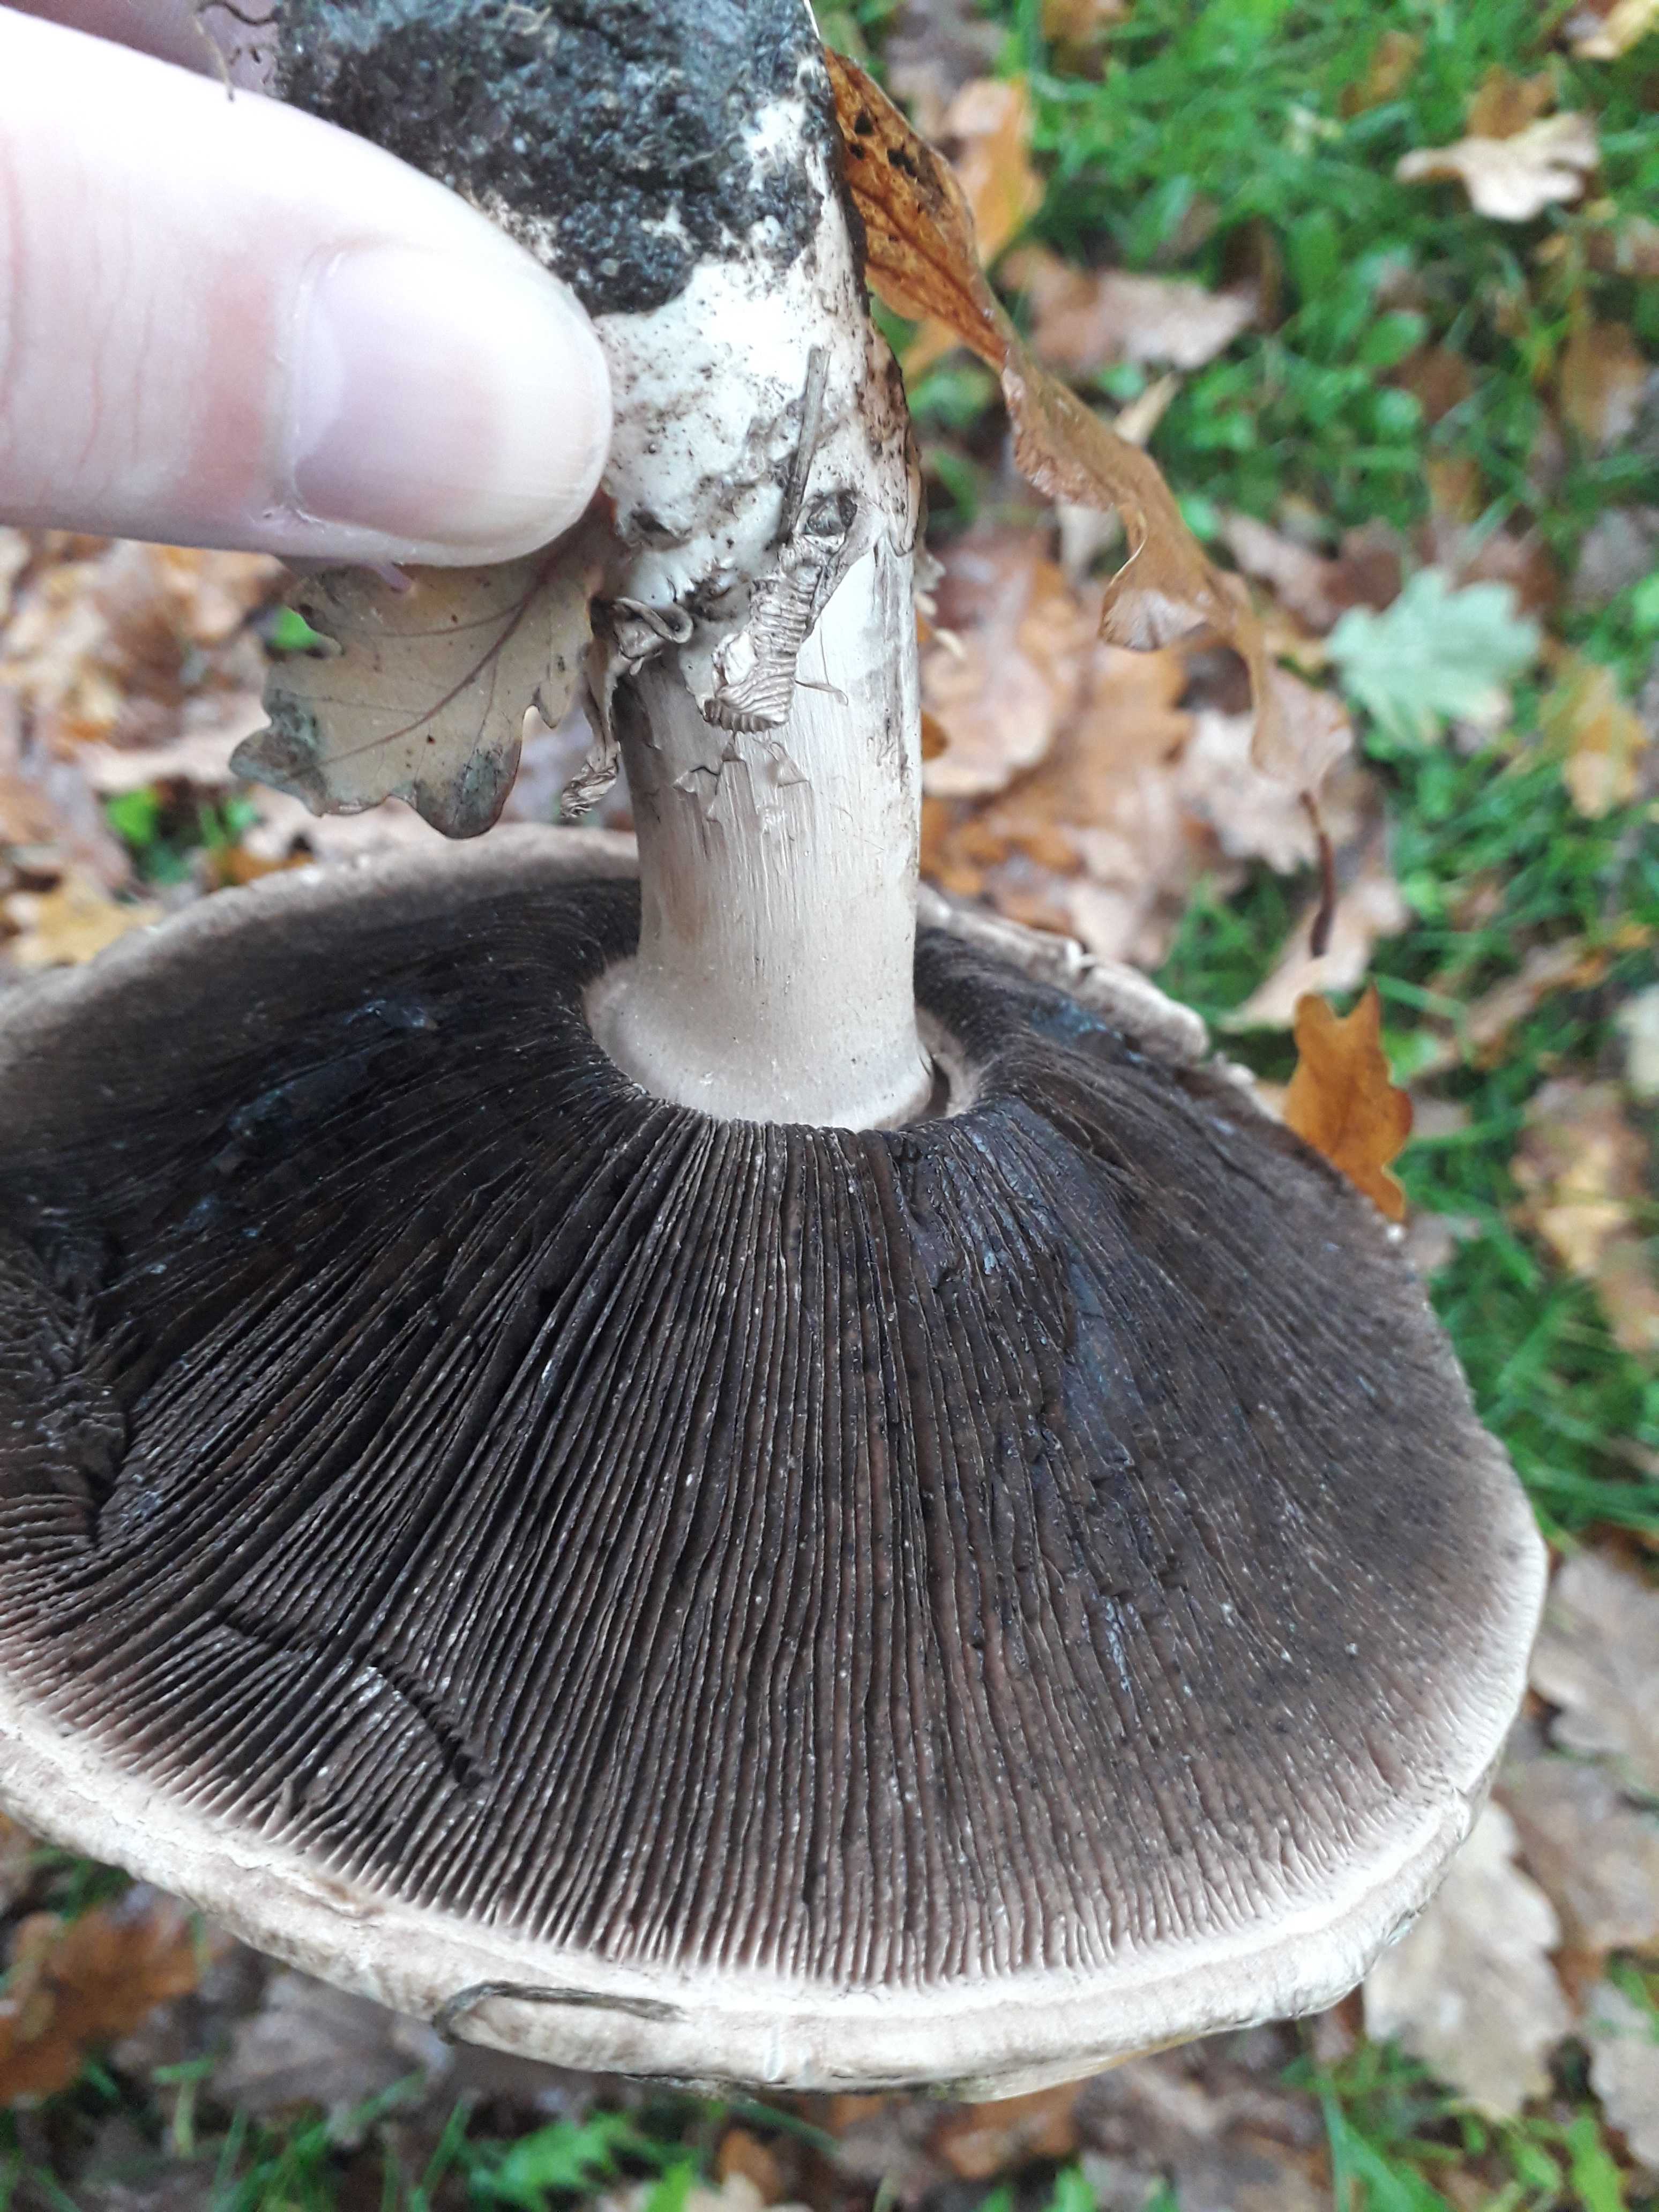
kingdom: Fungi
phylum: Basidiomycota
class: Agaricomycetes
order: Agaricales
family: Agaricaceae
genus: Agaricus
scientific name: Agaricus
